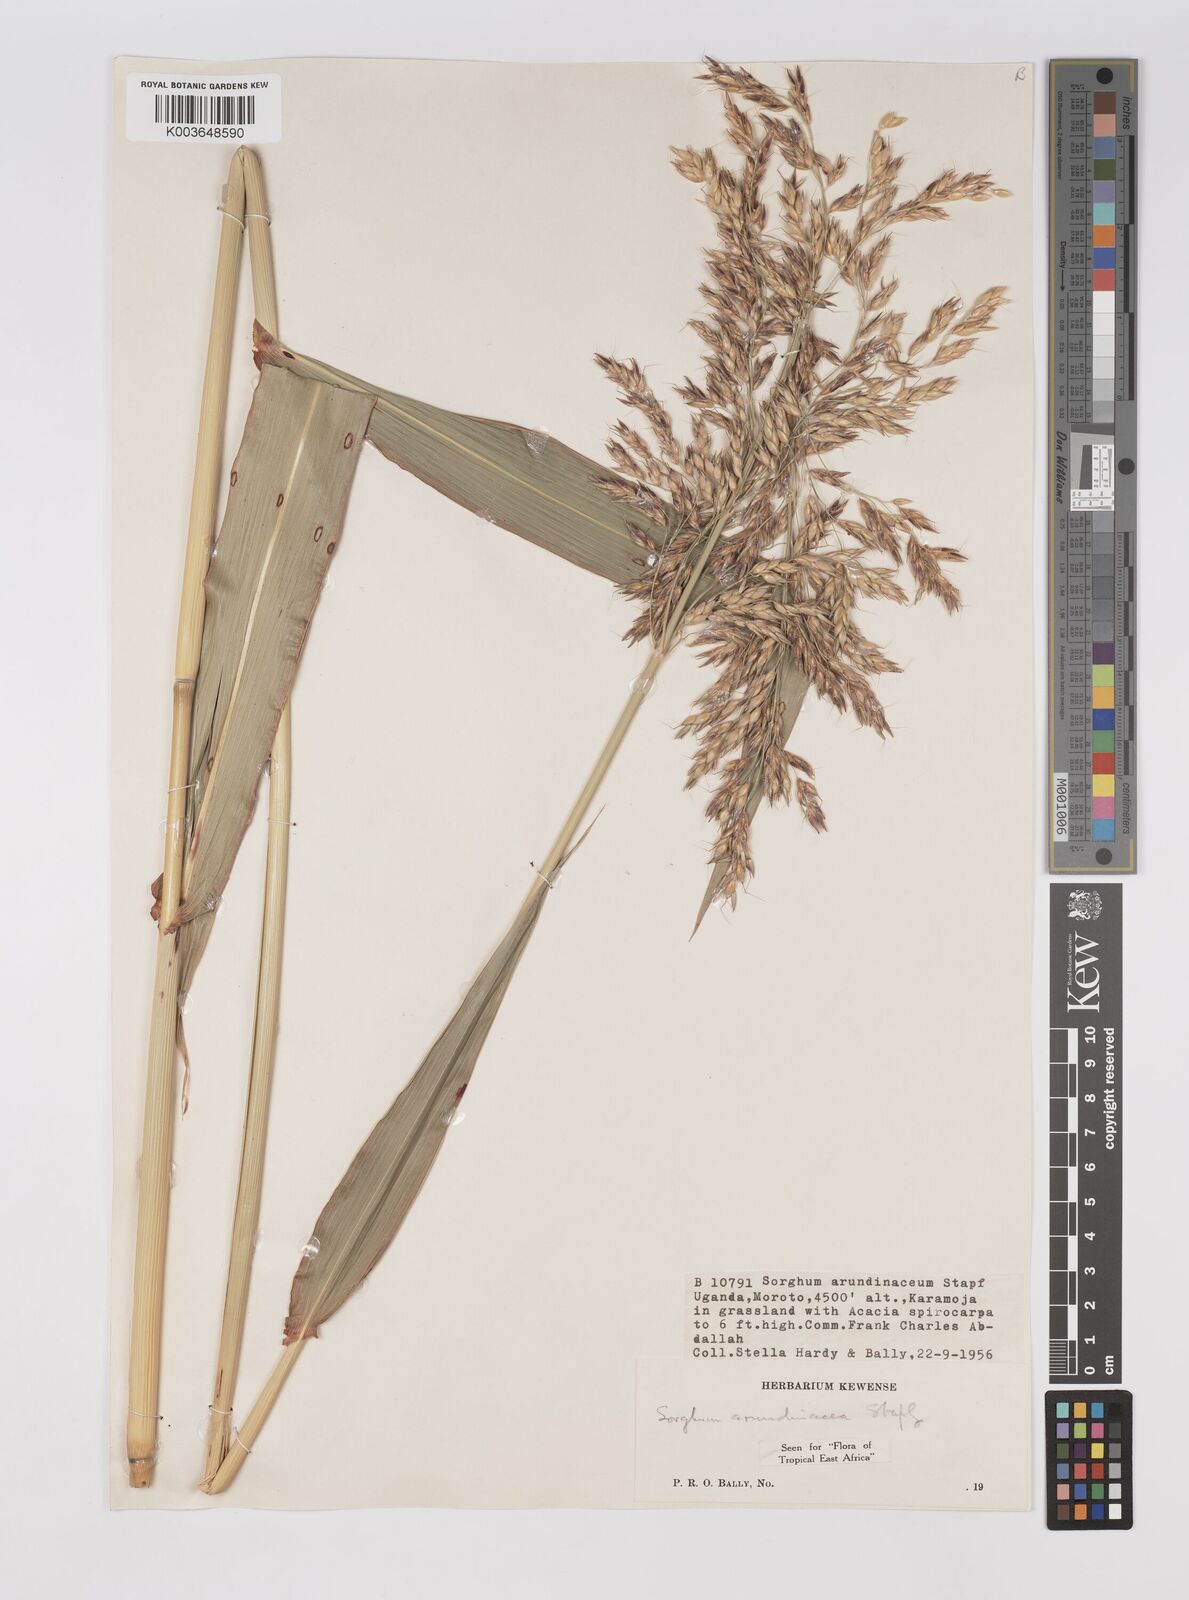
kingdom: Plantae
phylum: Tracheophyta
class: Liliopsida
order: Poales
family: Poaceae
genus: Sorghum
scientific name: Sorghum arundinaceum
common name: Sorghum
